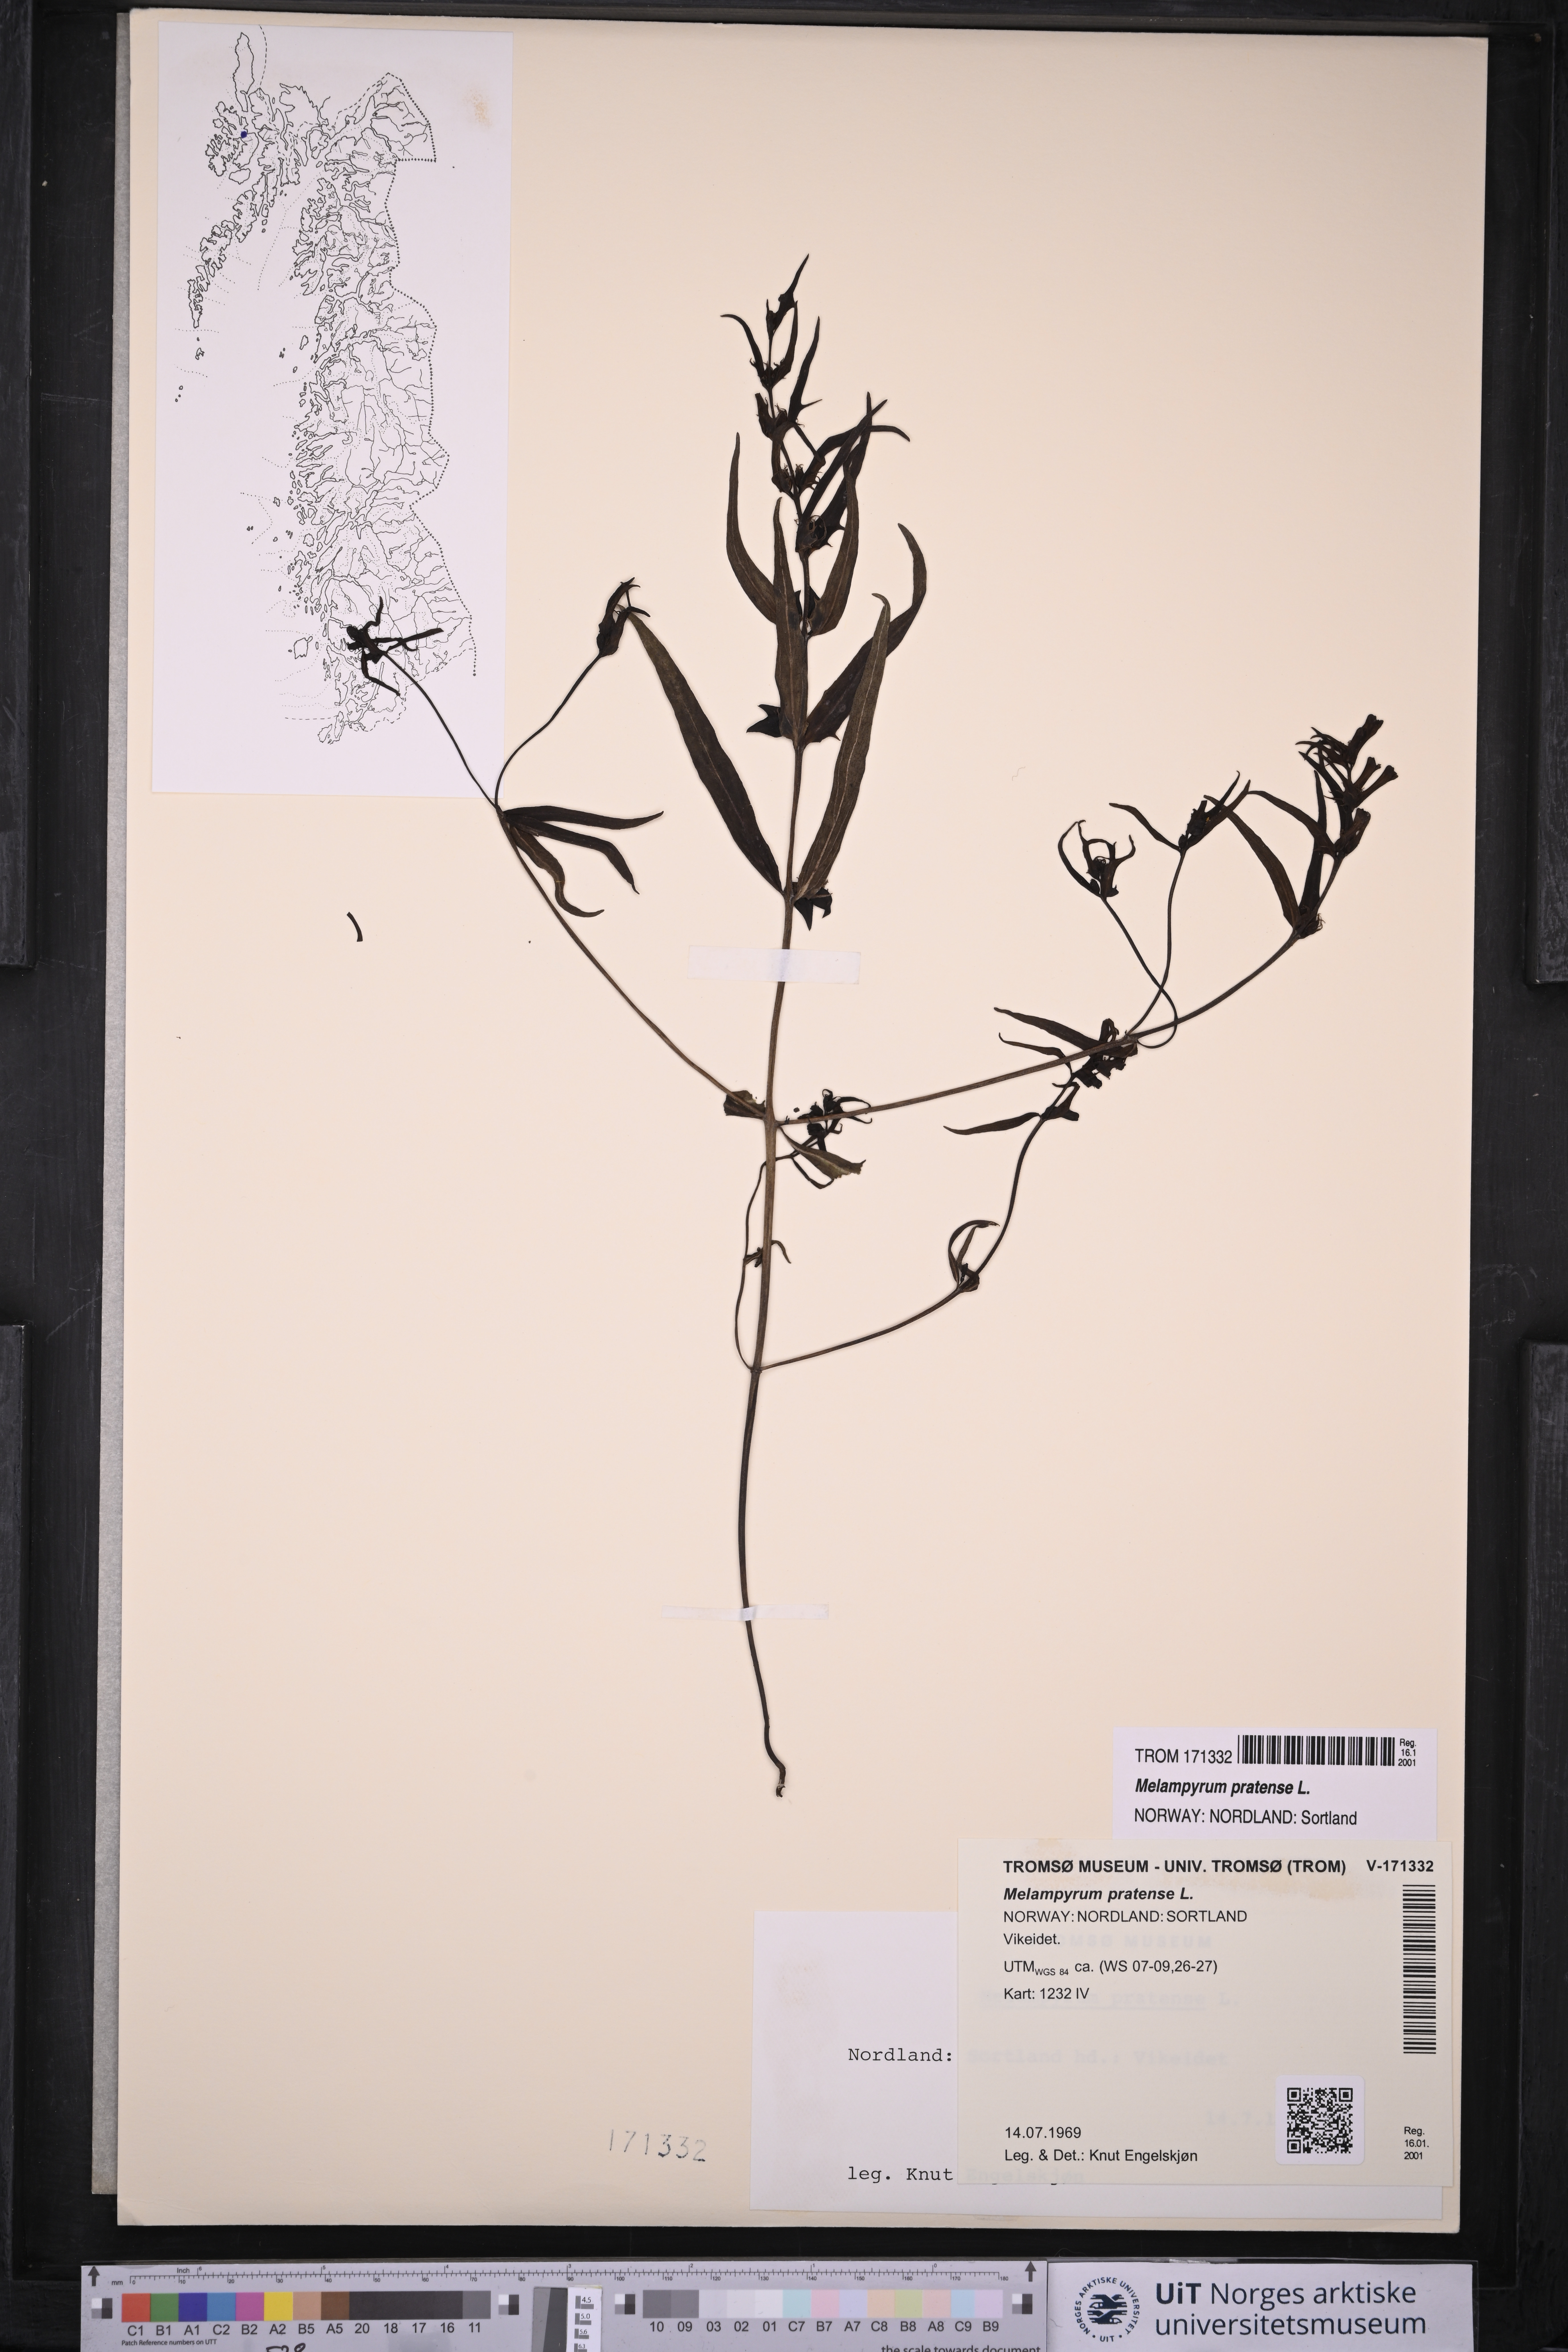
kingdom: Plantae
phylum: Tracheophyta
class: Magnoliopsida
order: Lamiales
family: Orobanchaceae
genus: Melampyrum
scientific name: Melampyrum pratense
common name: Common cow-wheat
